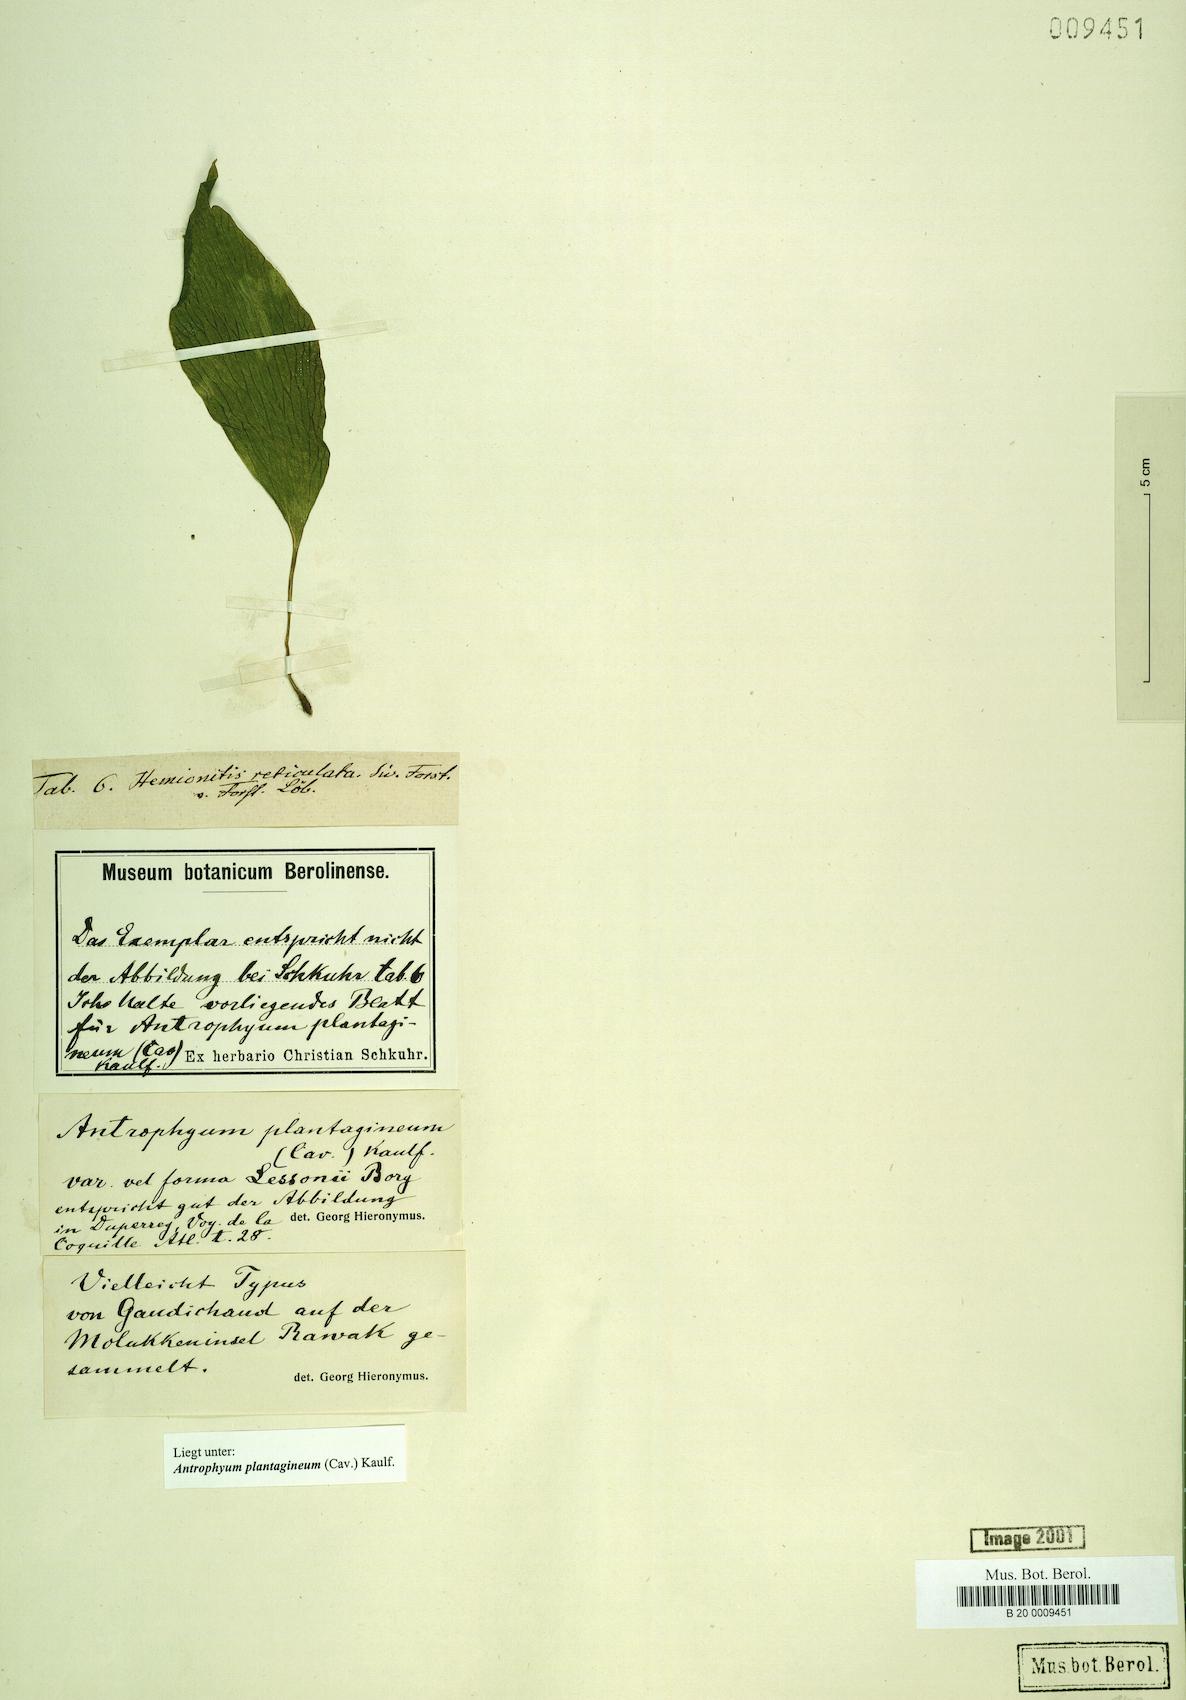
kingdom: Plantae
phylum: Tracheophyta
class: Polypodiopsida
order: Polypodiales
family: Pteridaceae
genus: Antrophyum
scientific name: Antrophyum plantagineum
